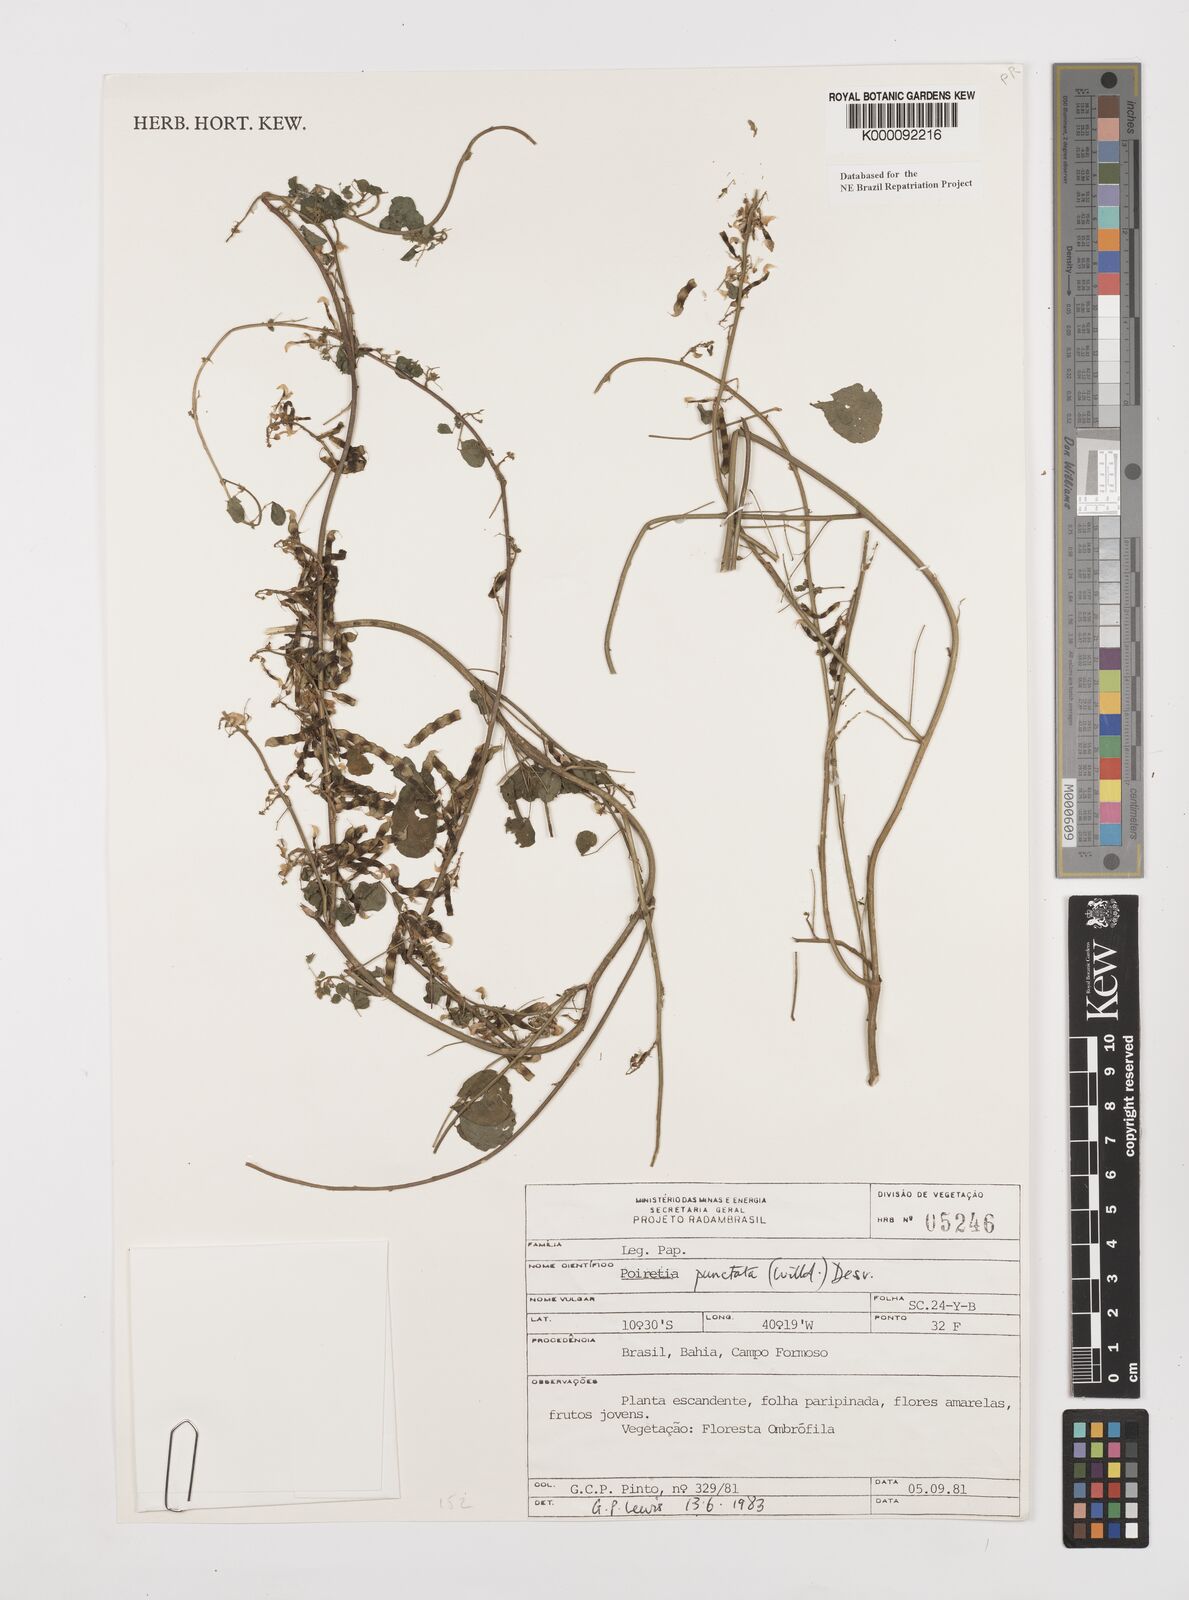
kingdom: Plantae
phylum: Tracheophyta
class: Magnoliopsida
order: Fabales
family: Fabaceae
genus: Poiretia
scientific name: Poiretia punctata
